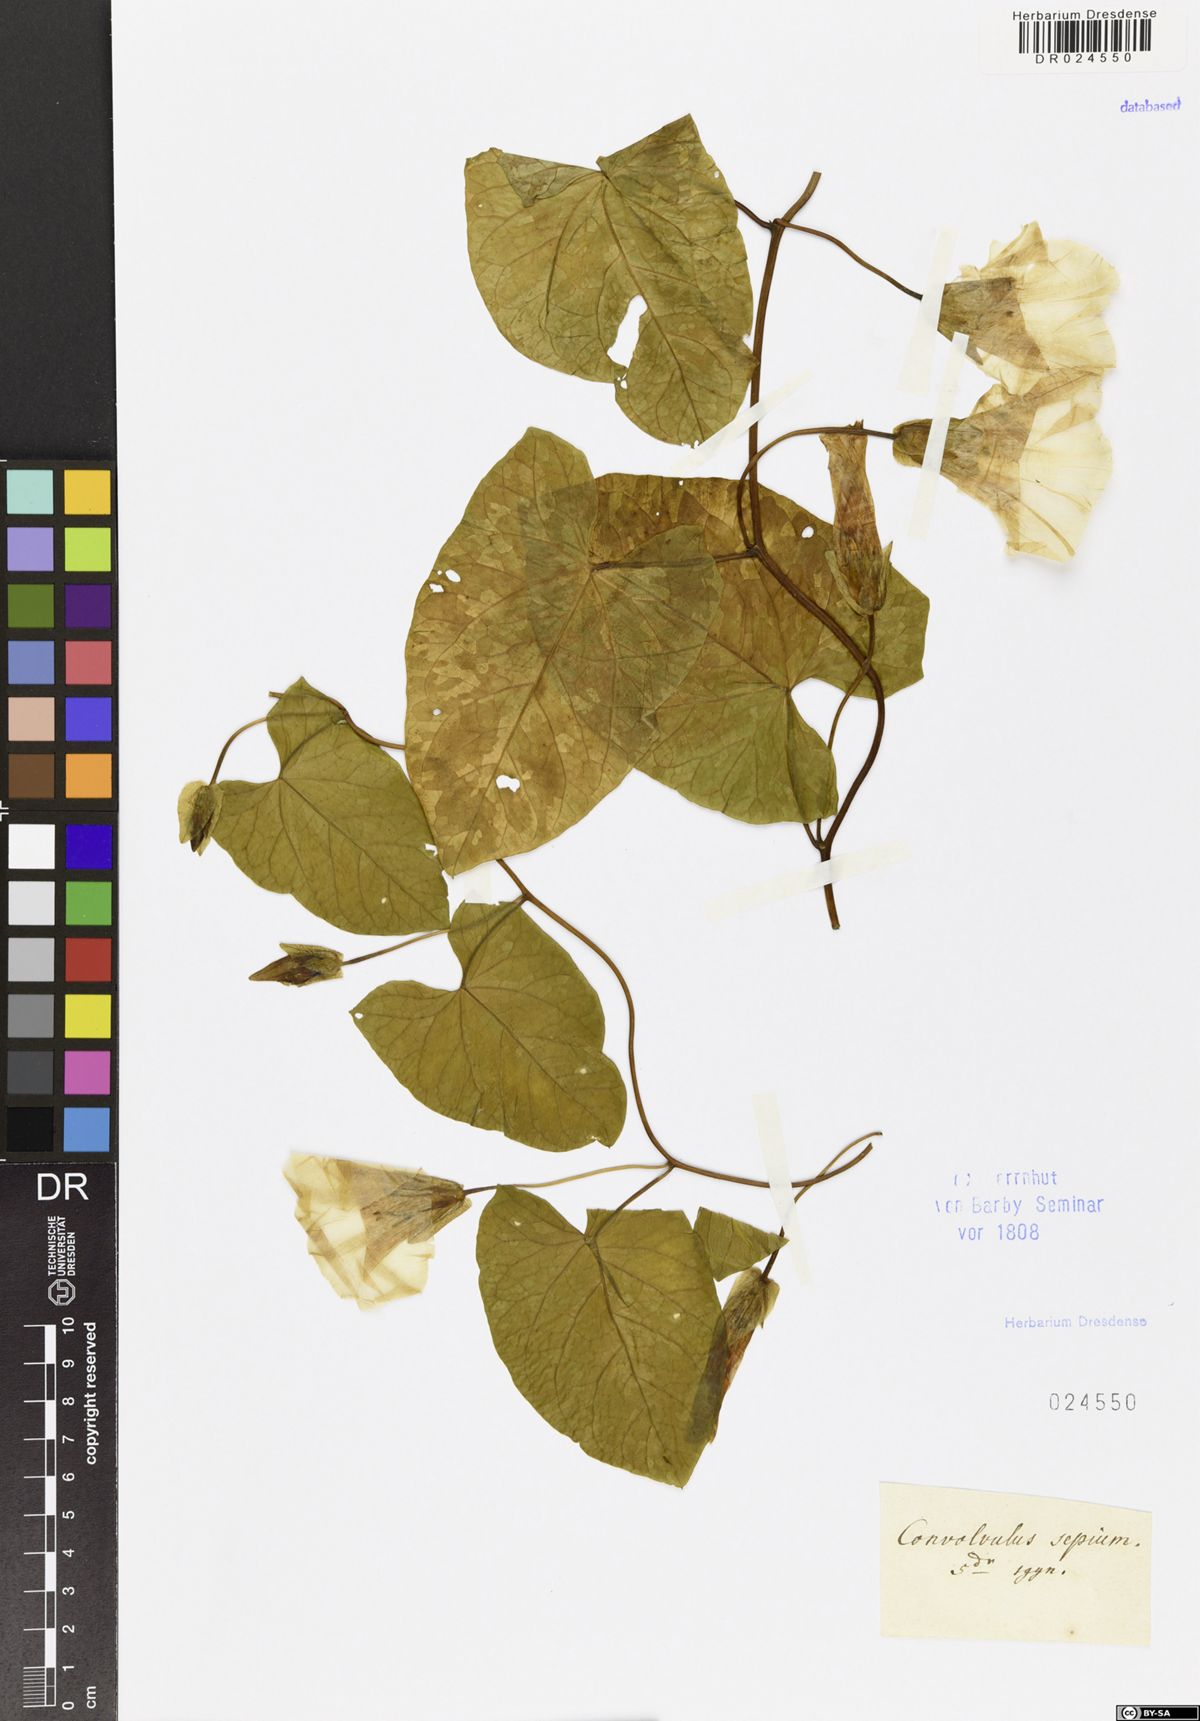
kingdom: Plantae
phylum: Tracheophyta
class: Magnoliopsida
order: Solanales
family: Convolvulaceae
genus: Calystegia
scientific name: Calystegia sepium
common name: Hedge bindweed
